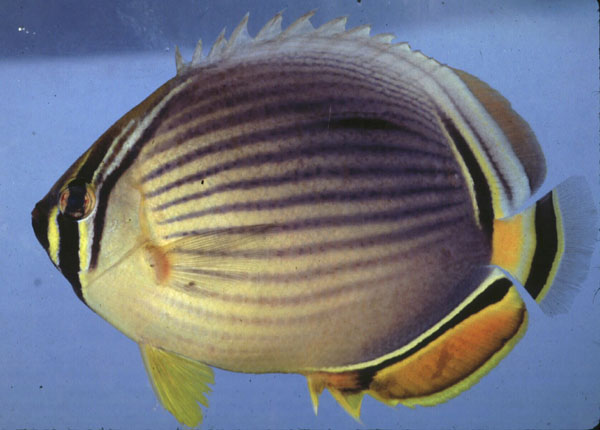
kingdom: Animalia
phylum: Chordata
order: Perciformes
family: Chaetodontidae
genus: Chaetodon
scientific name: Chaetodon trifasciatus
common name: Redfin butterflyfish
